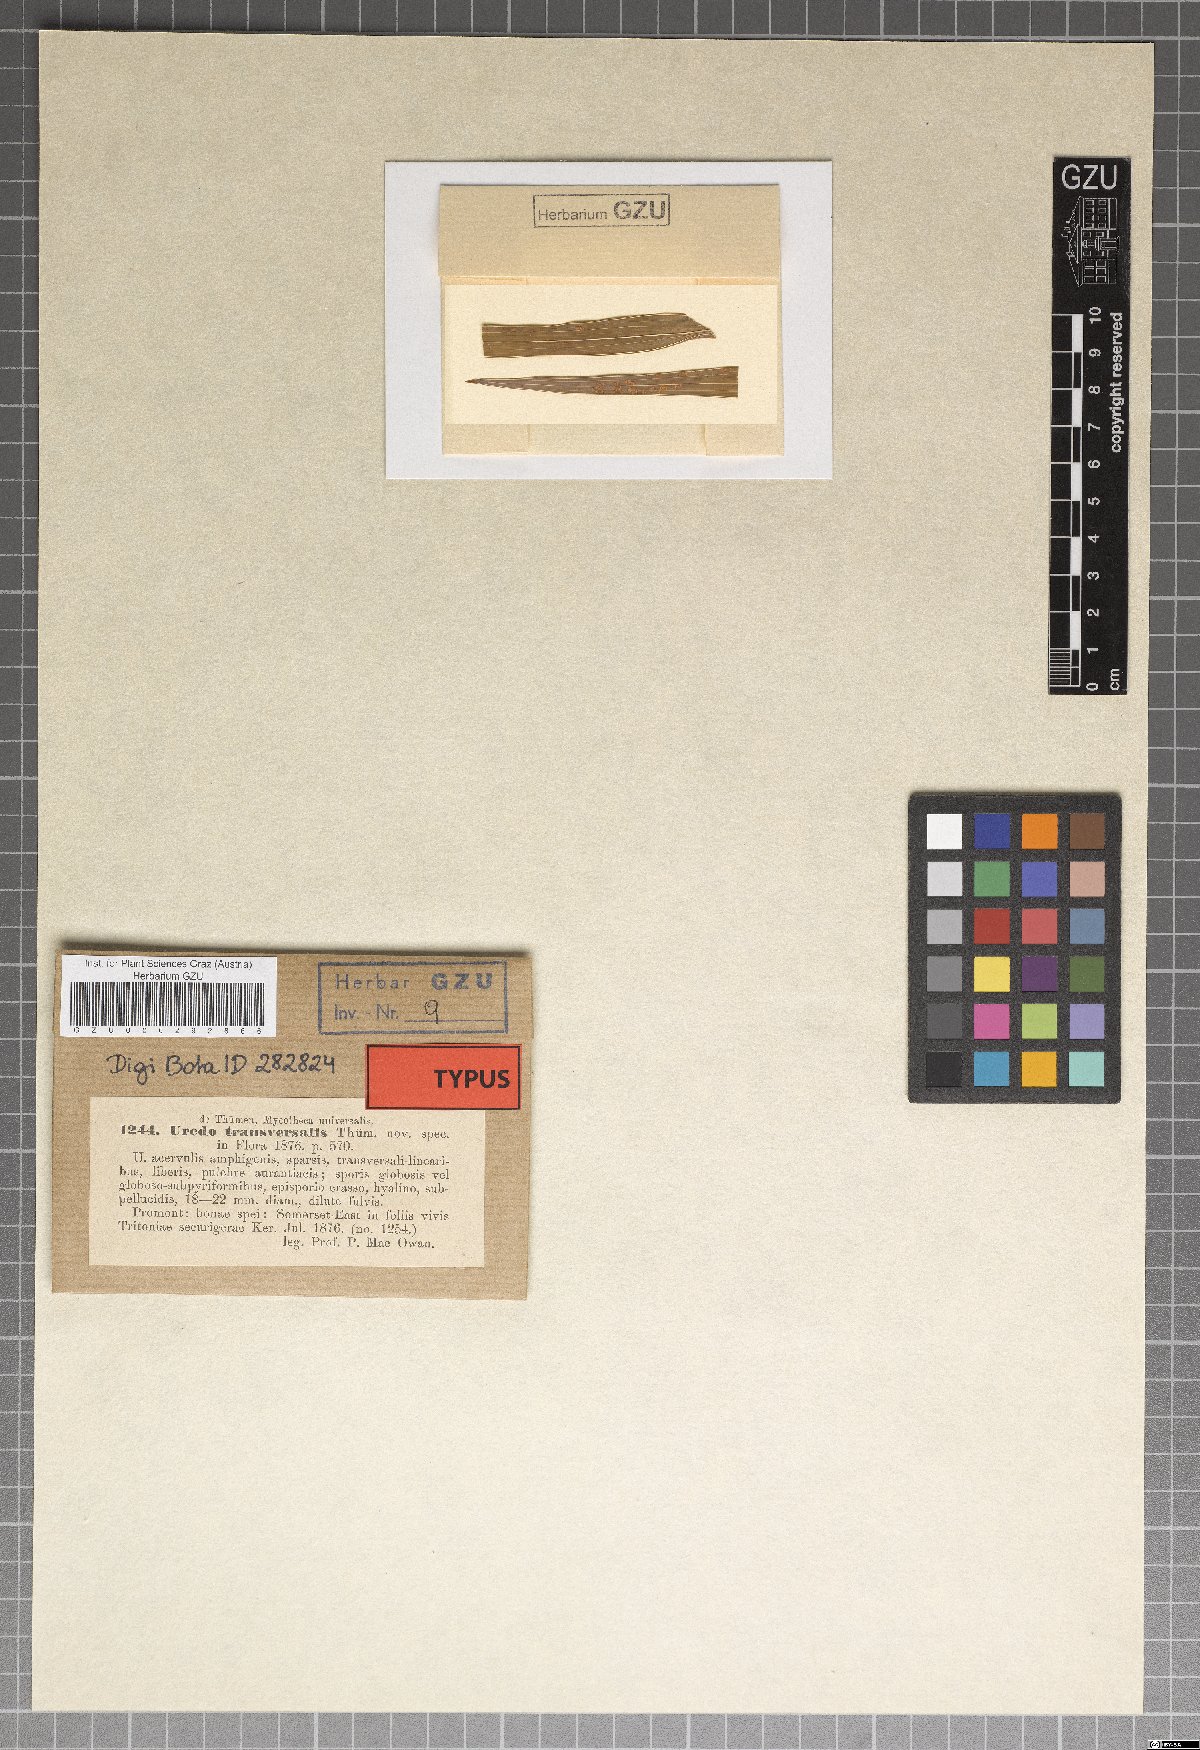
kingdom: Fungi
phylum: Basidiomycota
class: Pucciniomycetes
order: Pucciniales
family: Pucciniaceae
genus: Uromyces
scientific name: Uromyces transversalis
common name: Rust of gladiolus
